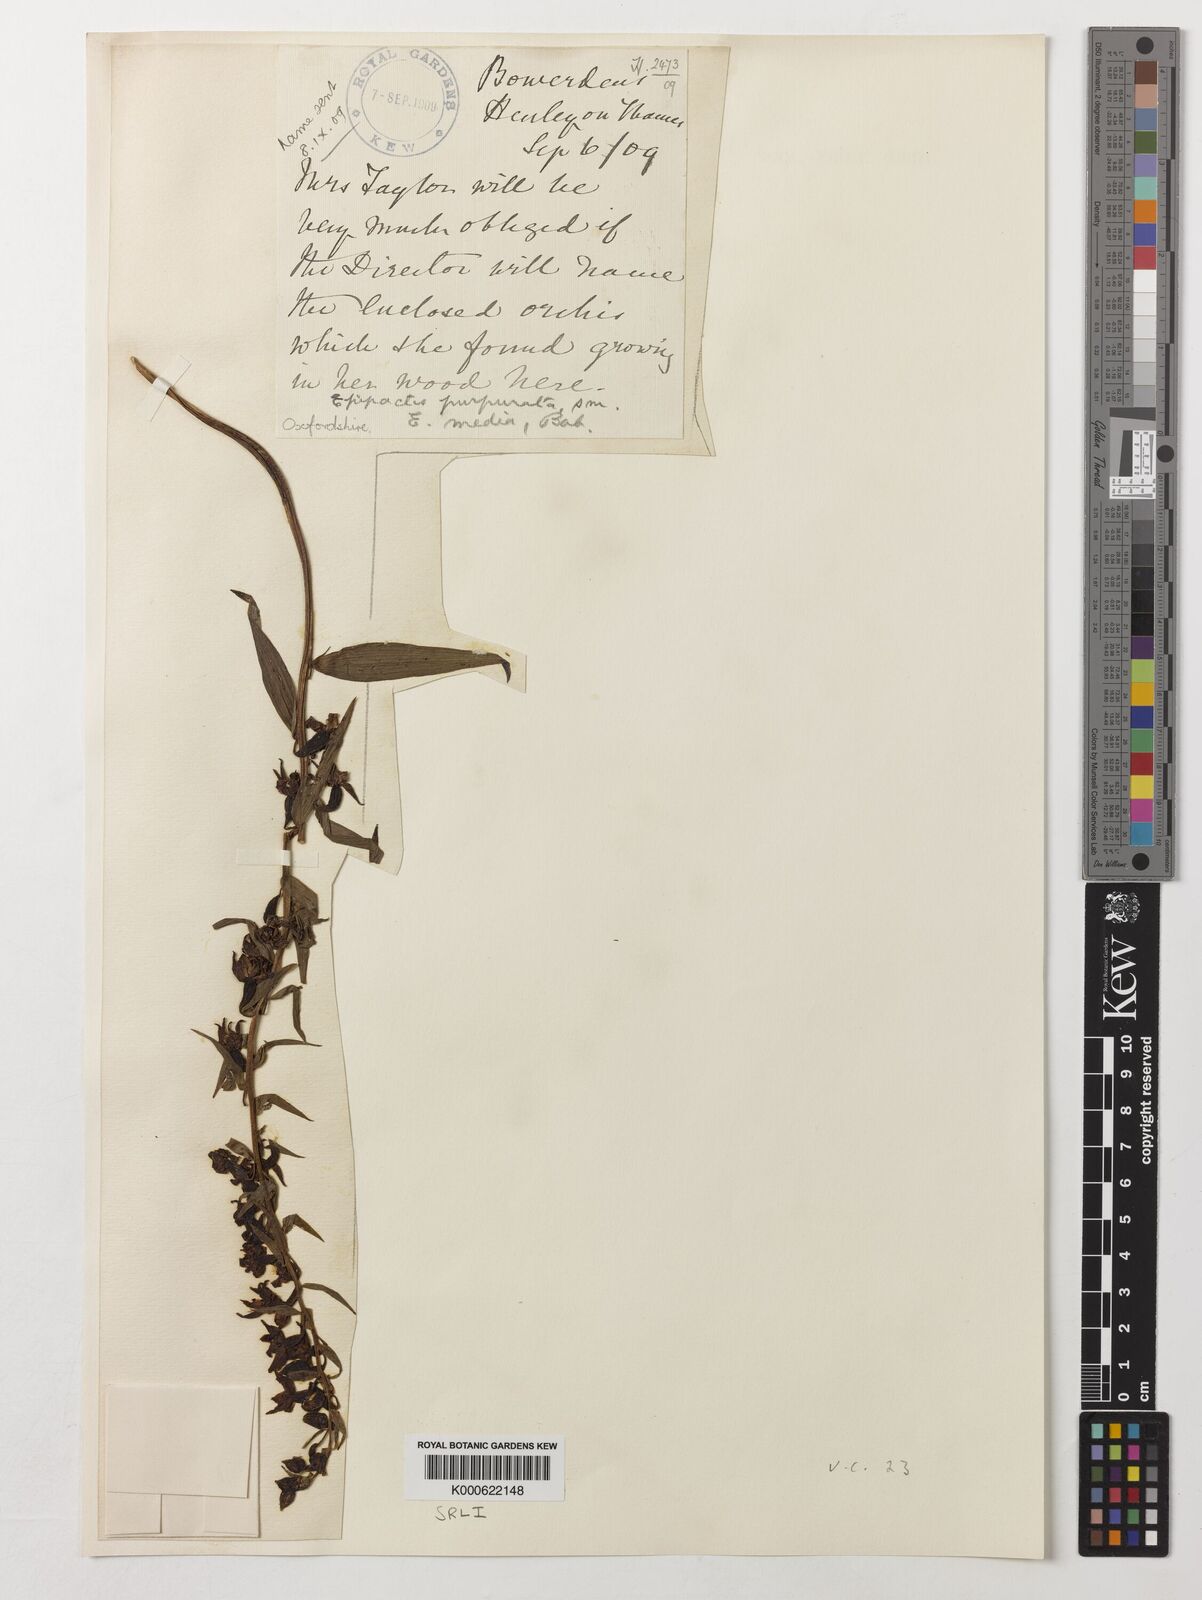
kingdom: Plantae
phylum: Tracheophyta
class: Liliopsida
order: Asparagales
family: Orchidaceae
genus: Epipactis
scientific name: Epipactis purpurata
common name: Violet helleborine
